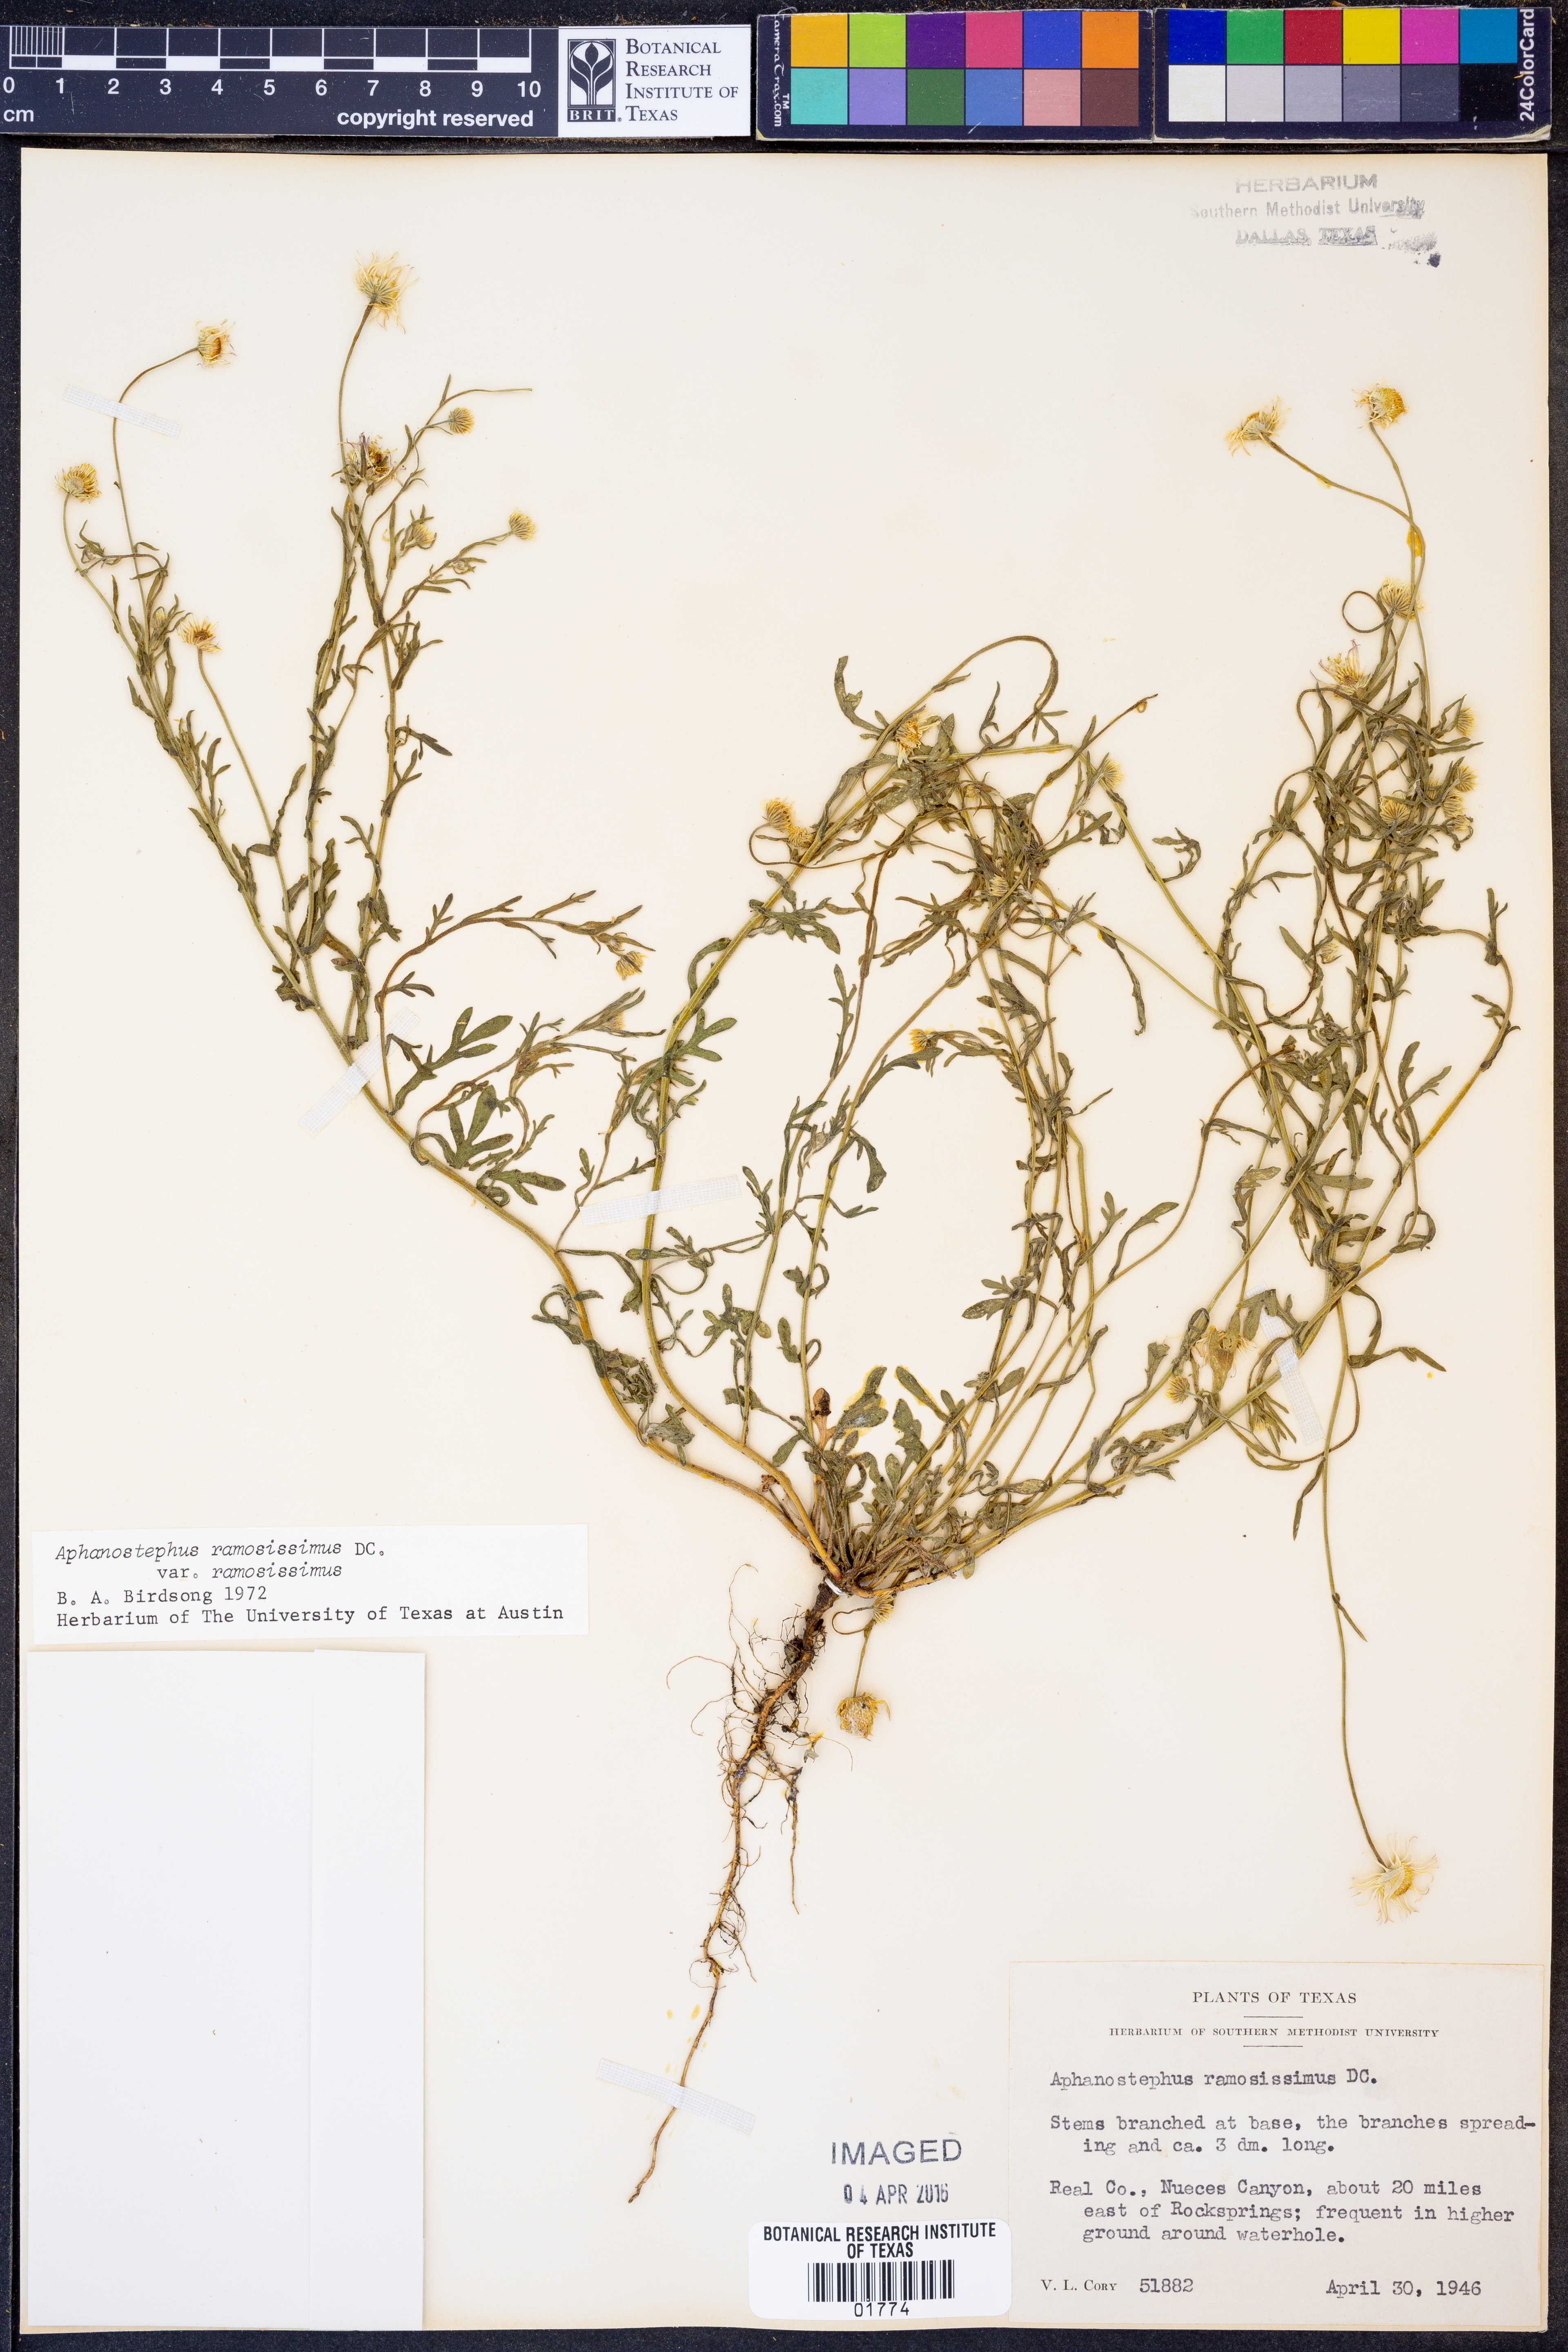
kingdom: Plantae
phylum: Tracheophyta
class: Magnoliopsida
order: Asterales
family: Asteraceae
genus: Aphanostephus
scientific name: Aphanostephus ramosissimus
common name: Plains lazy daisy
